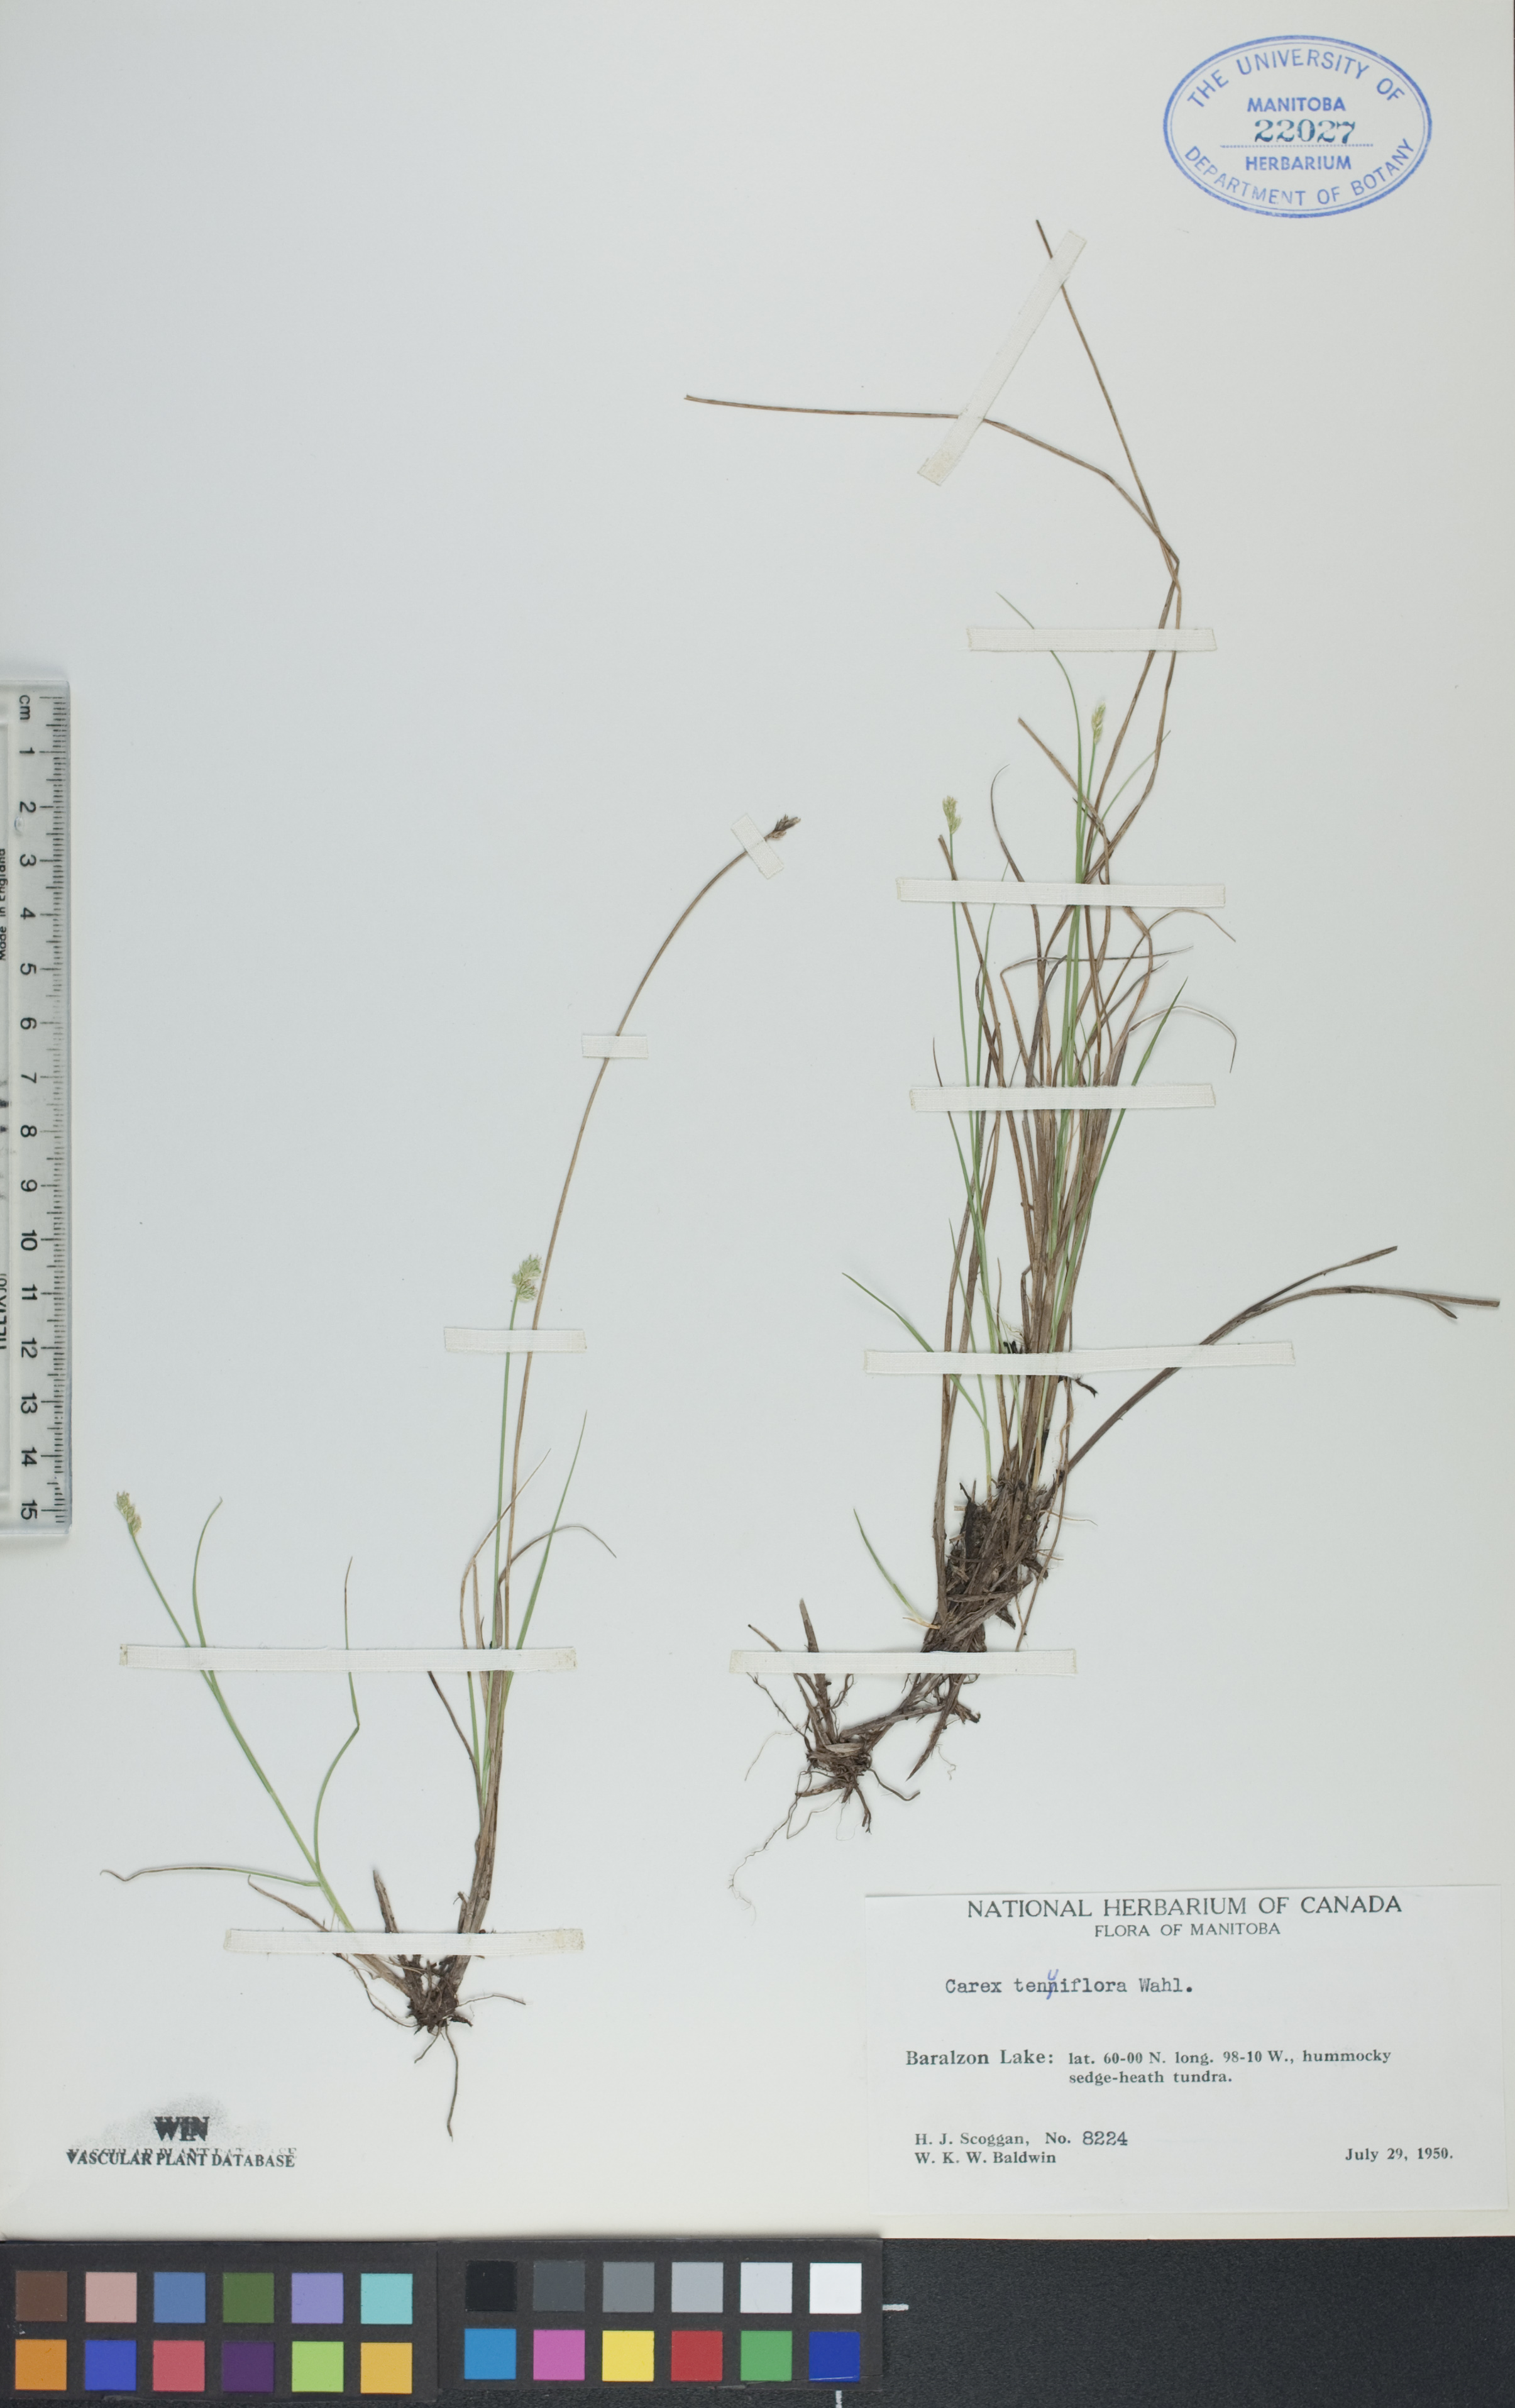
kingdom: Plantae
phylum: Tracheophyta
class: Liliopsida
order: Poales
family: Cyperaceae
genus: Carex
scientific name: Carex tenuiflora
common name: Sparse-flowered sedge
